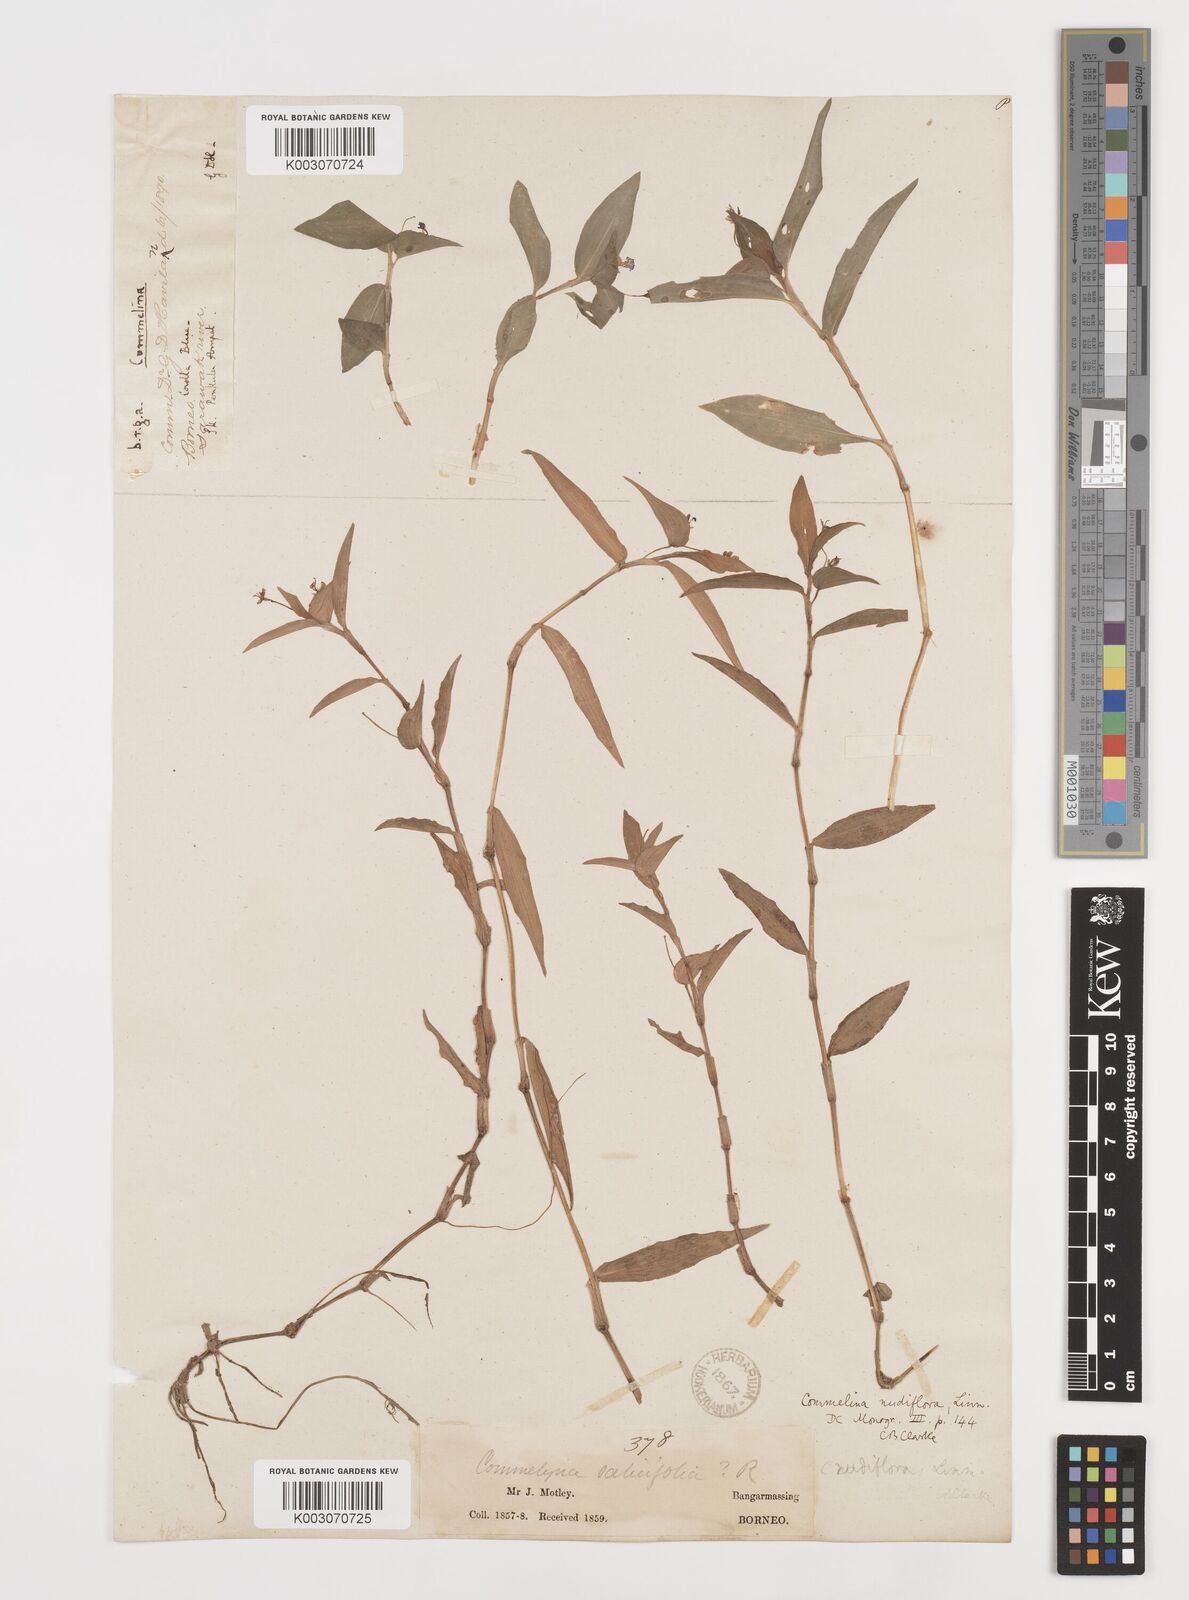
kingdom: Plantae
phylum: Tracheophyta
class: Liliopsida
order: Commelinales
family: Commelinaceae
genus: Commelina
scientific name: Commelina clavata
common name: Willow leaved dayflower
